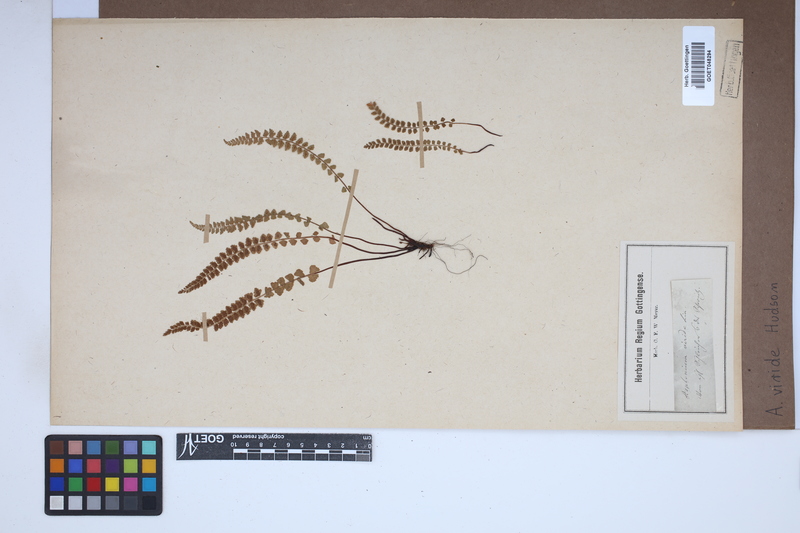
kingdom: Plantae
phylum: Tracheophyta
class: Polypodiopsida
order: Polypodiales
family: Aspleniaceae
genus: Asplenium
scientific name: Asplenium viride
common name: Green spleenwort
